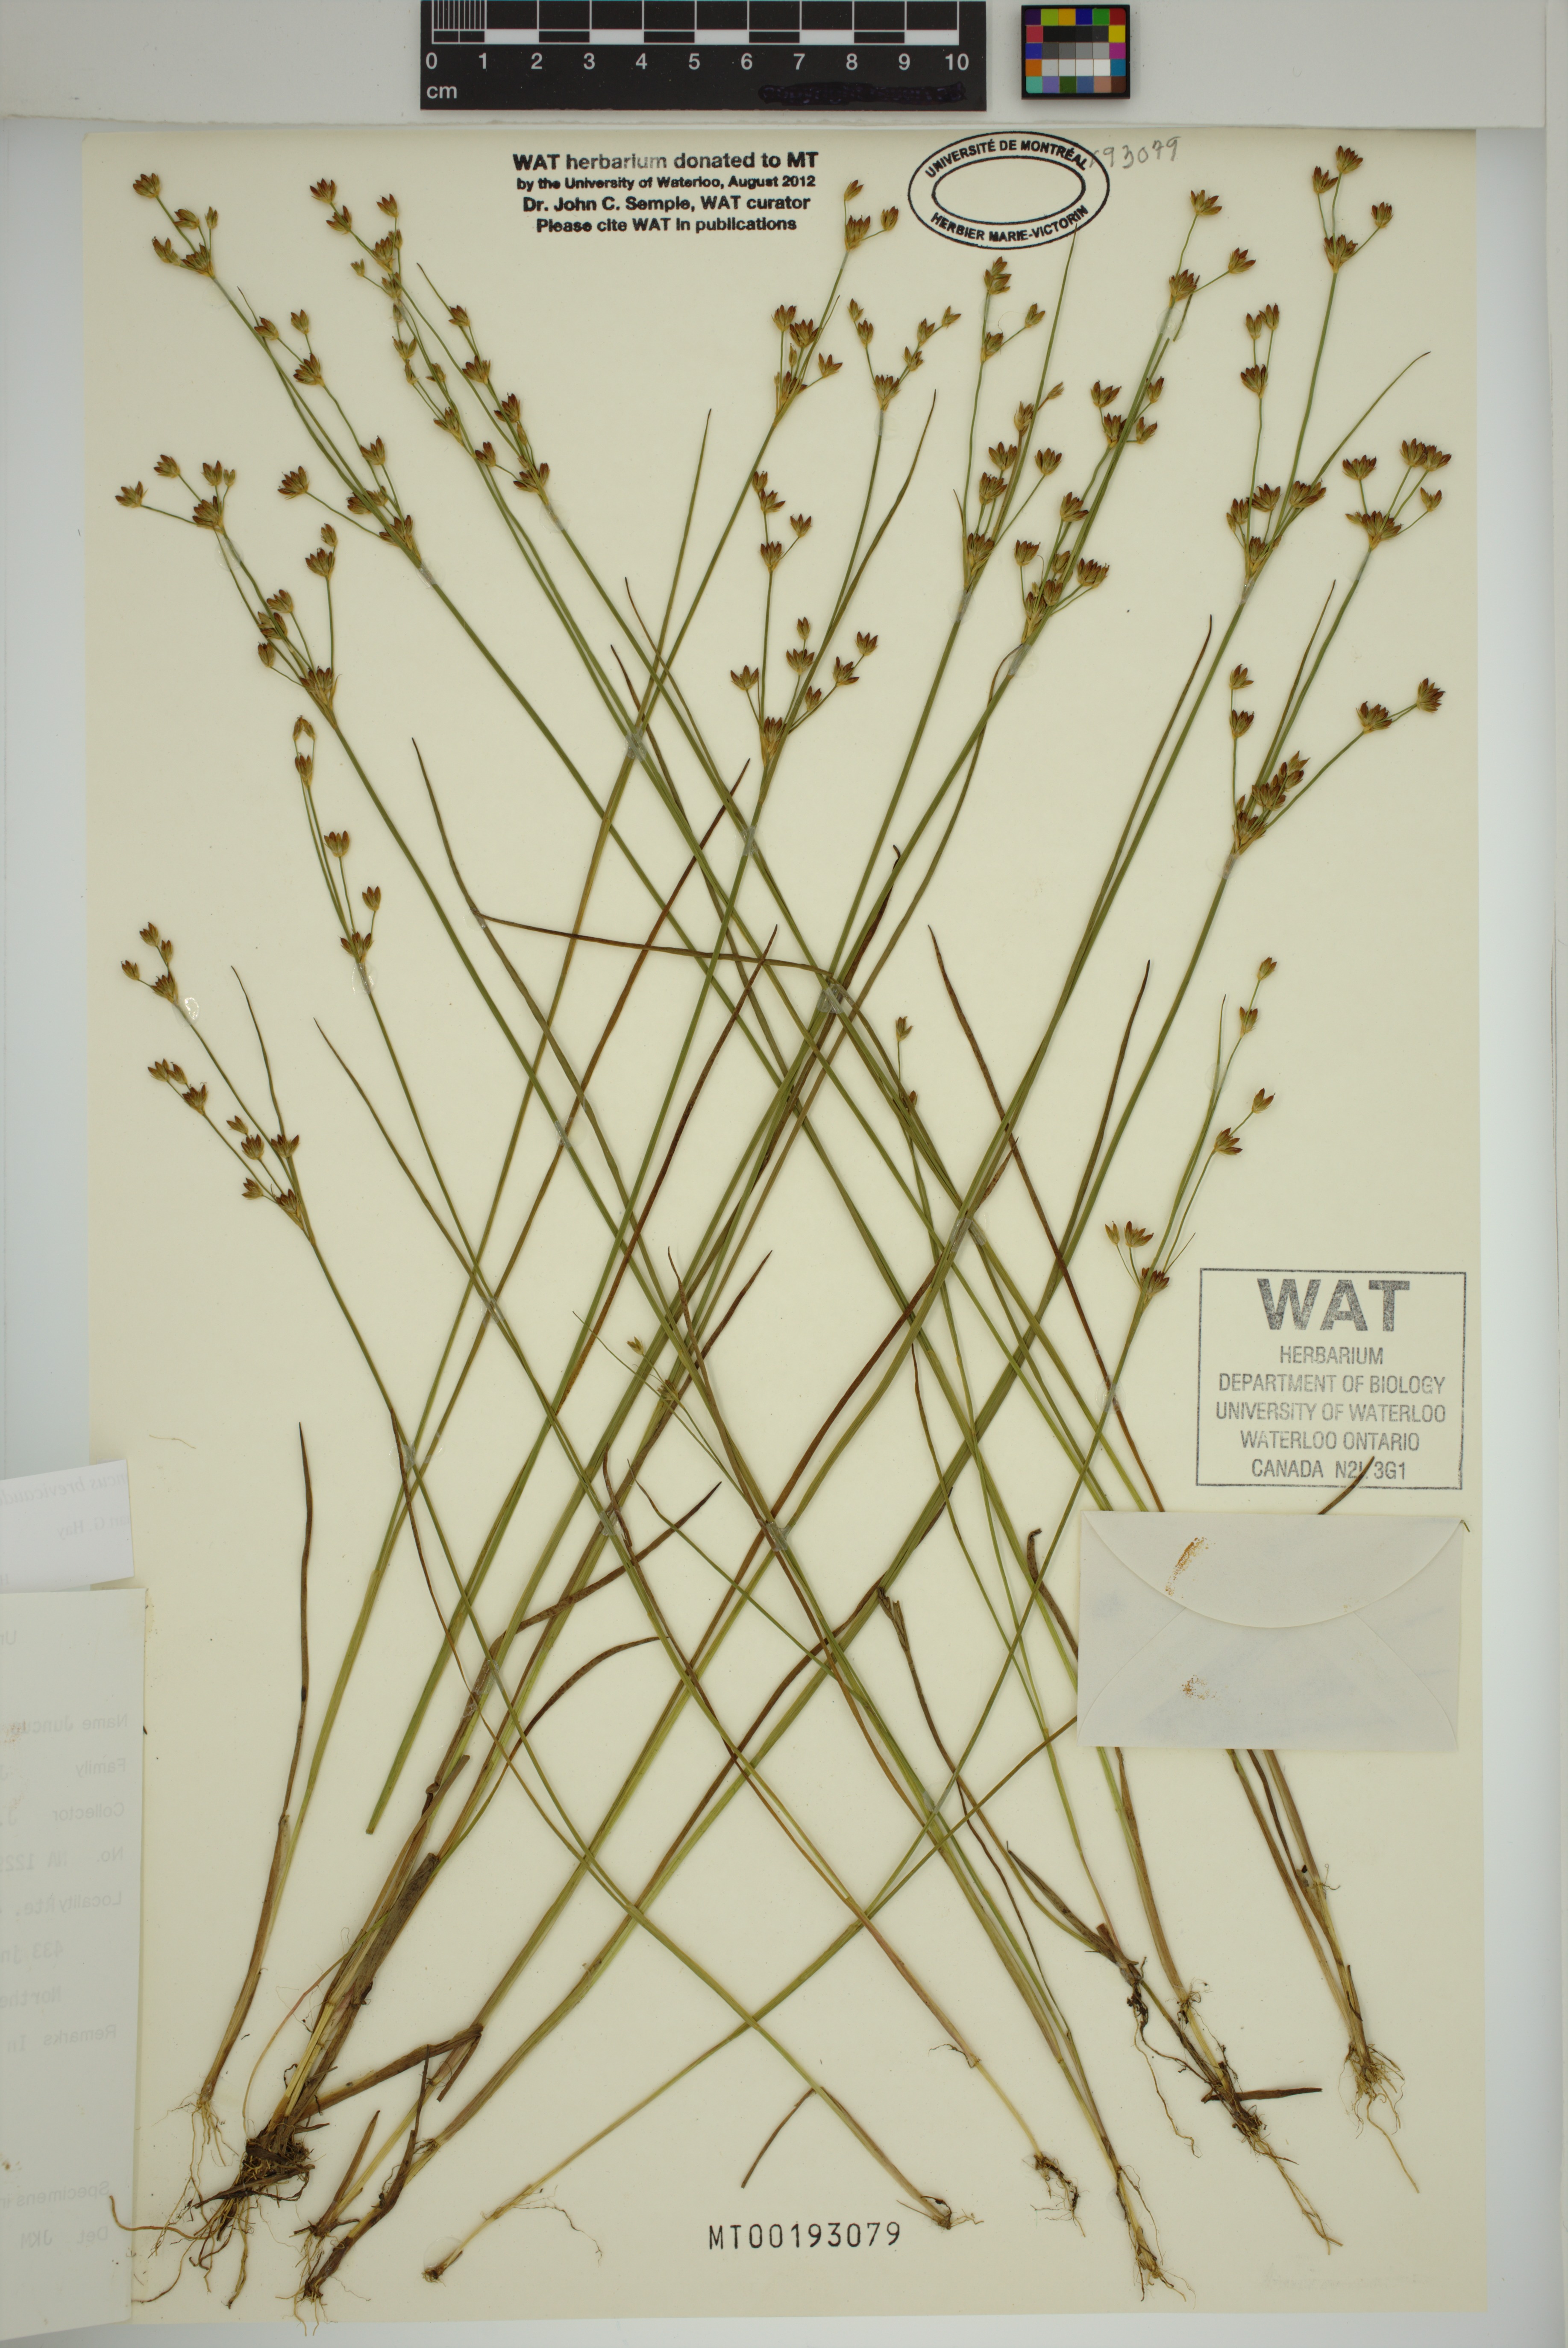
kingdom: Plantae
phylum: Tracheophyta
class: Liliopsida
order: Poales
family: Juncaceae
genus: Juncus
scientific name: Juncus brevicaudatus
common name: Narrow-panicle rush
